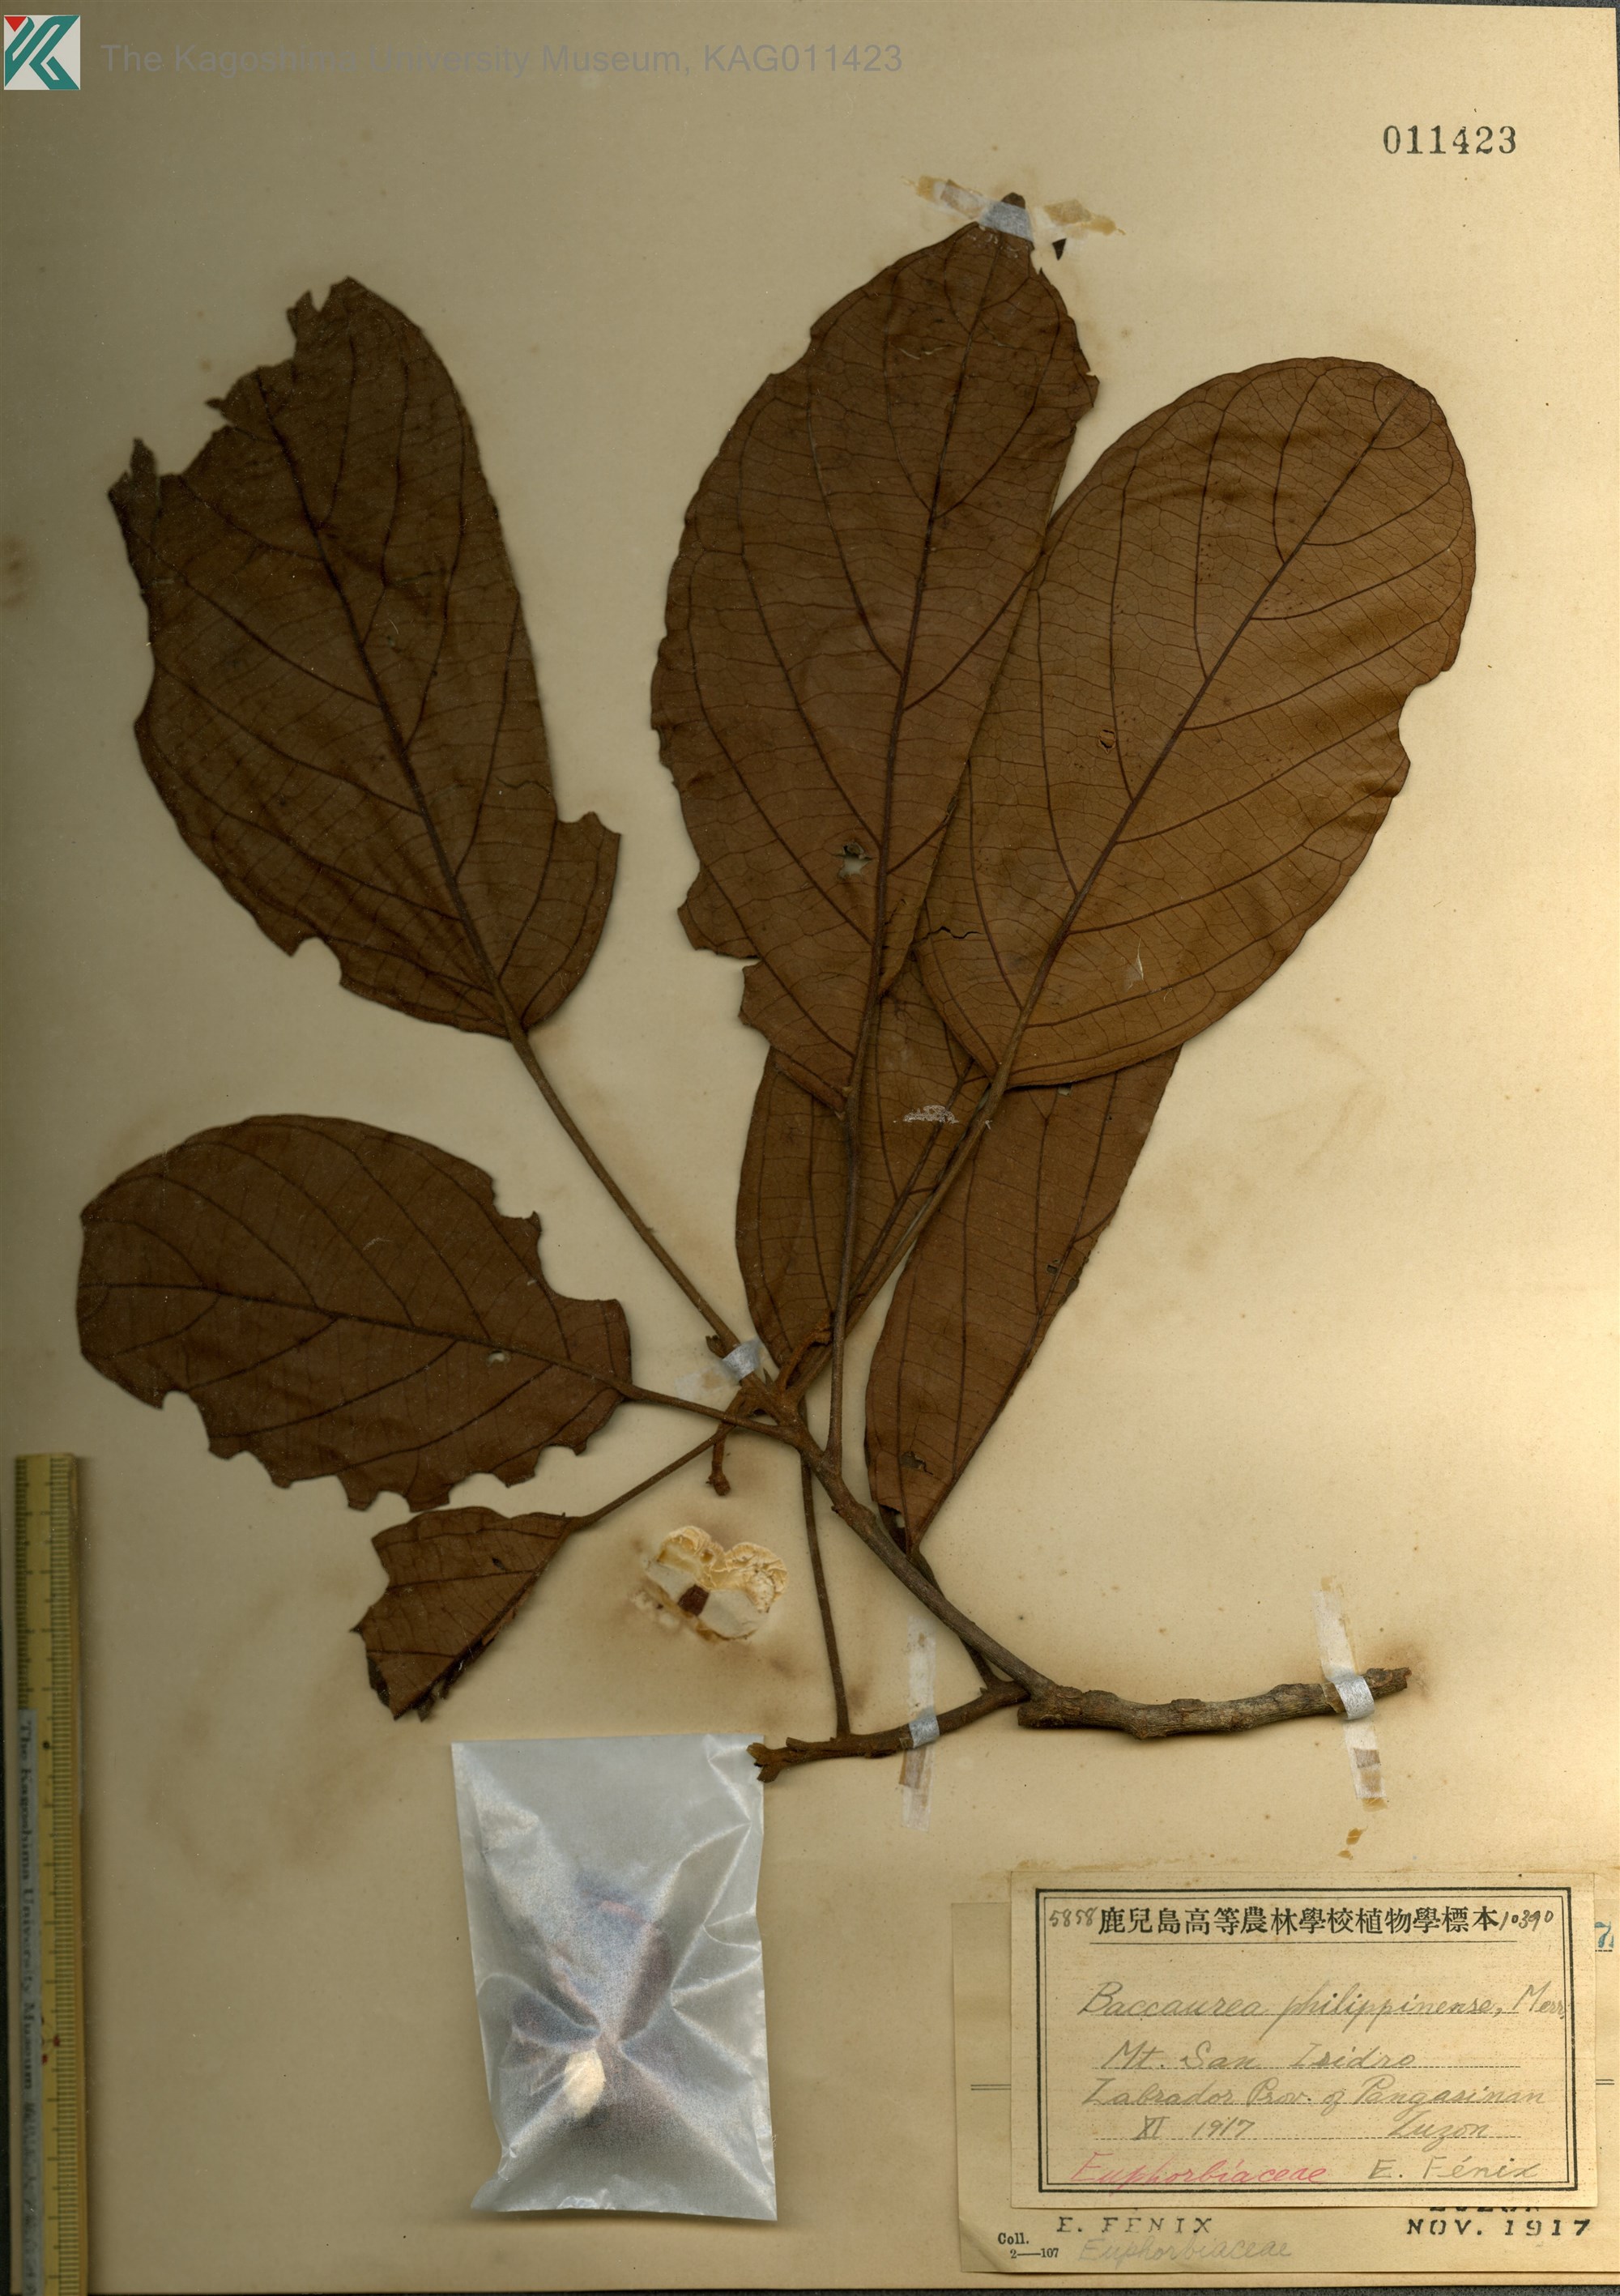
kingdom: Plantae
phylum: Tracheophyta
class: Magnoliopsida
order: Malpighiales
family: Phyllanthaceae
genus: Baccaurea
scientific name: Baccaurea philippinensis
